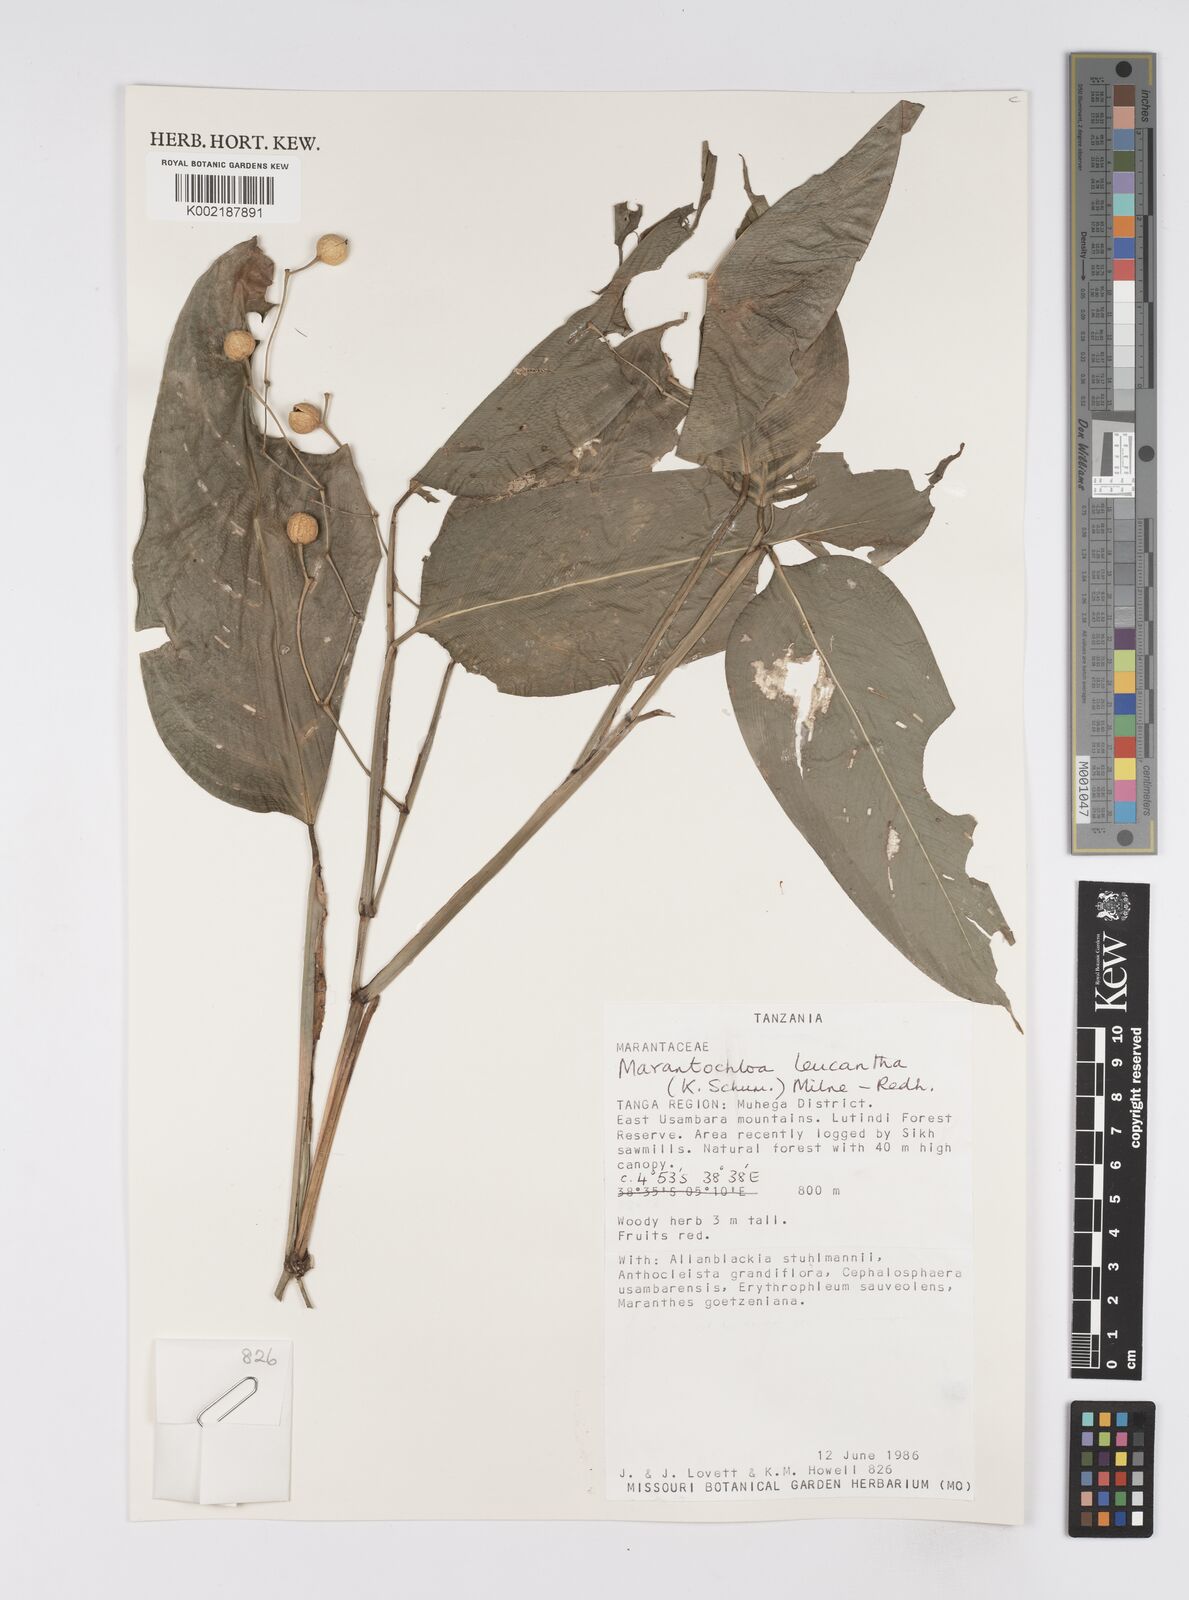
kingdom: Plantae
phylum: Tracheophyta
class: Liliopsida
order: Zingiberales
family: Marantaceae
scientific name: Marantaceae
